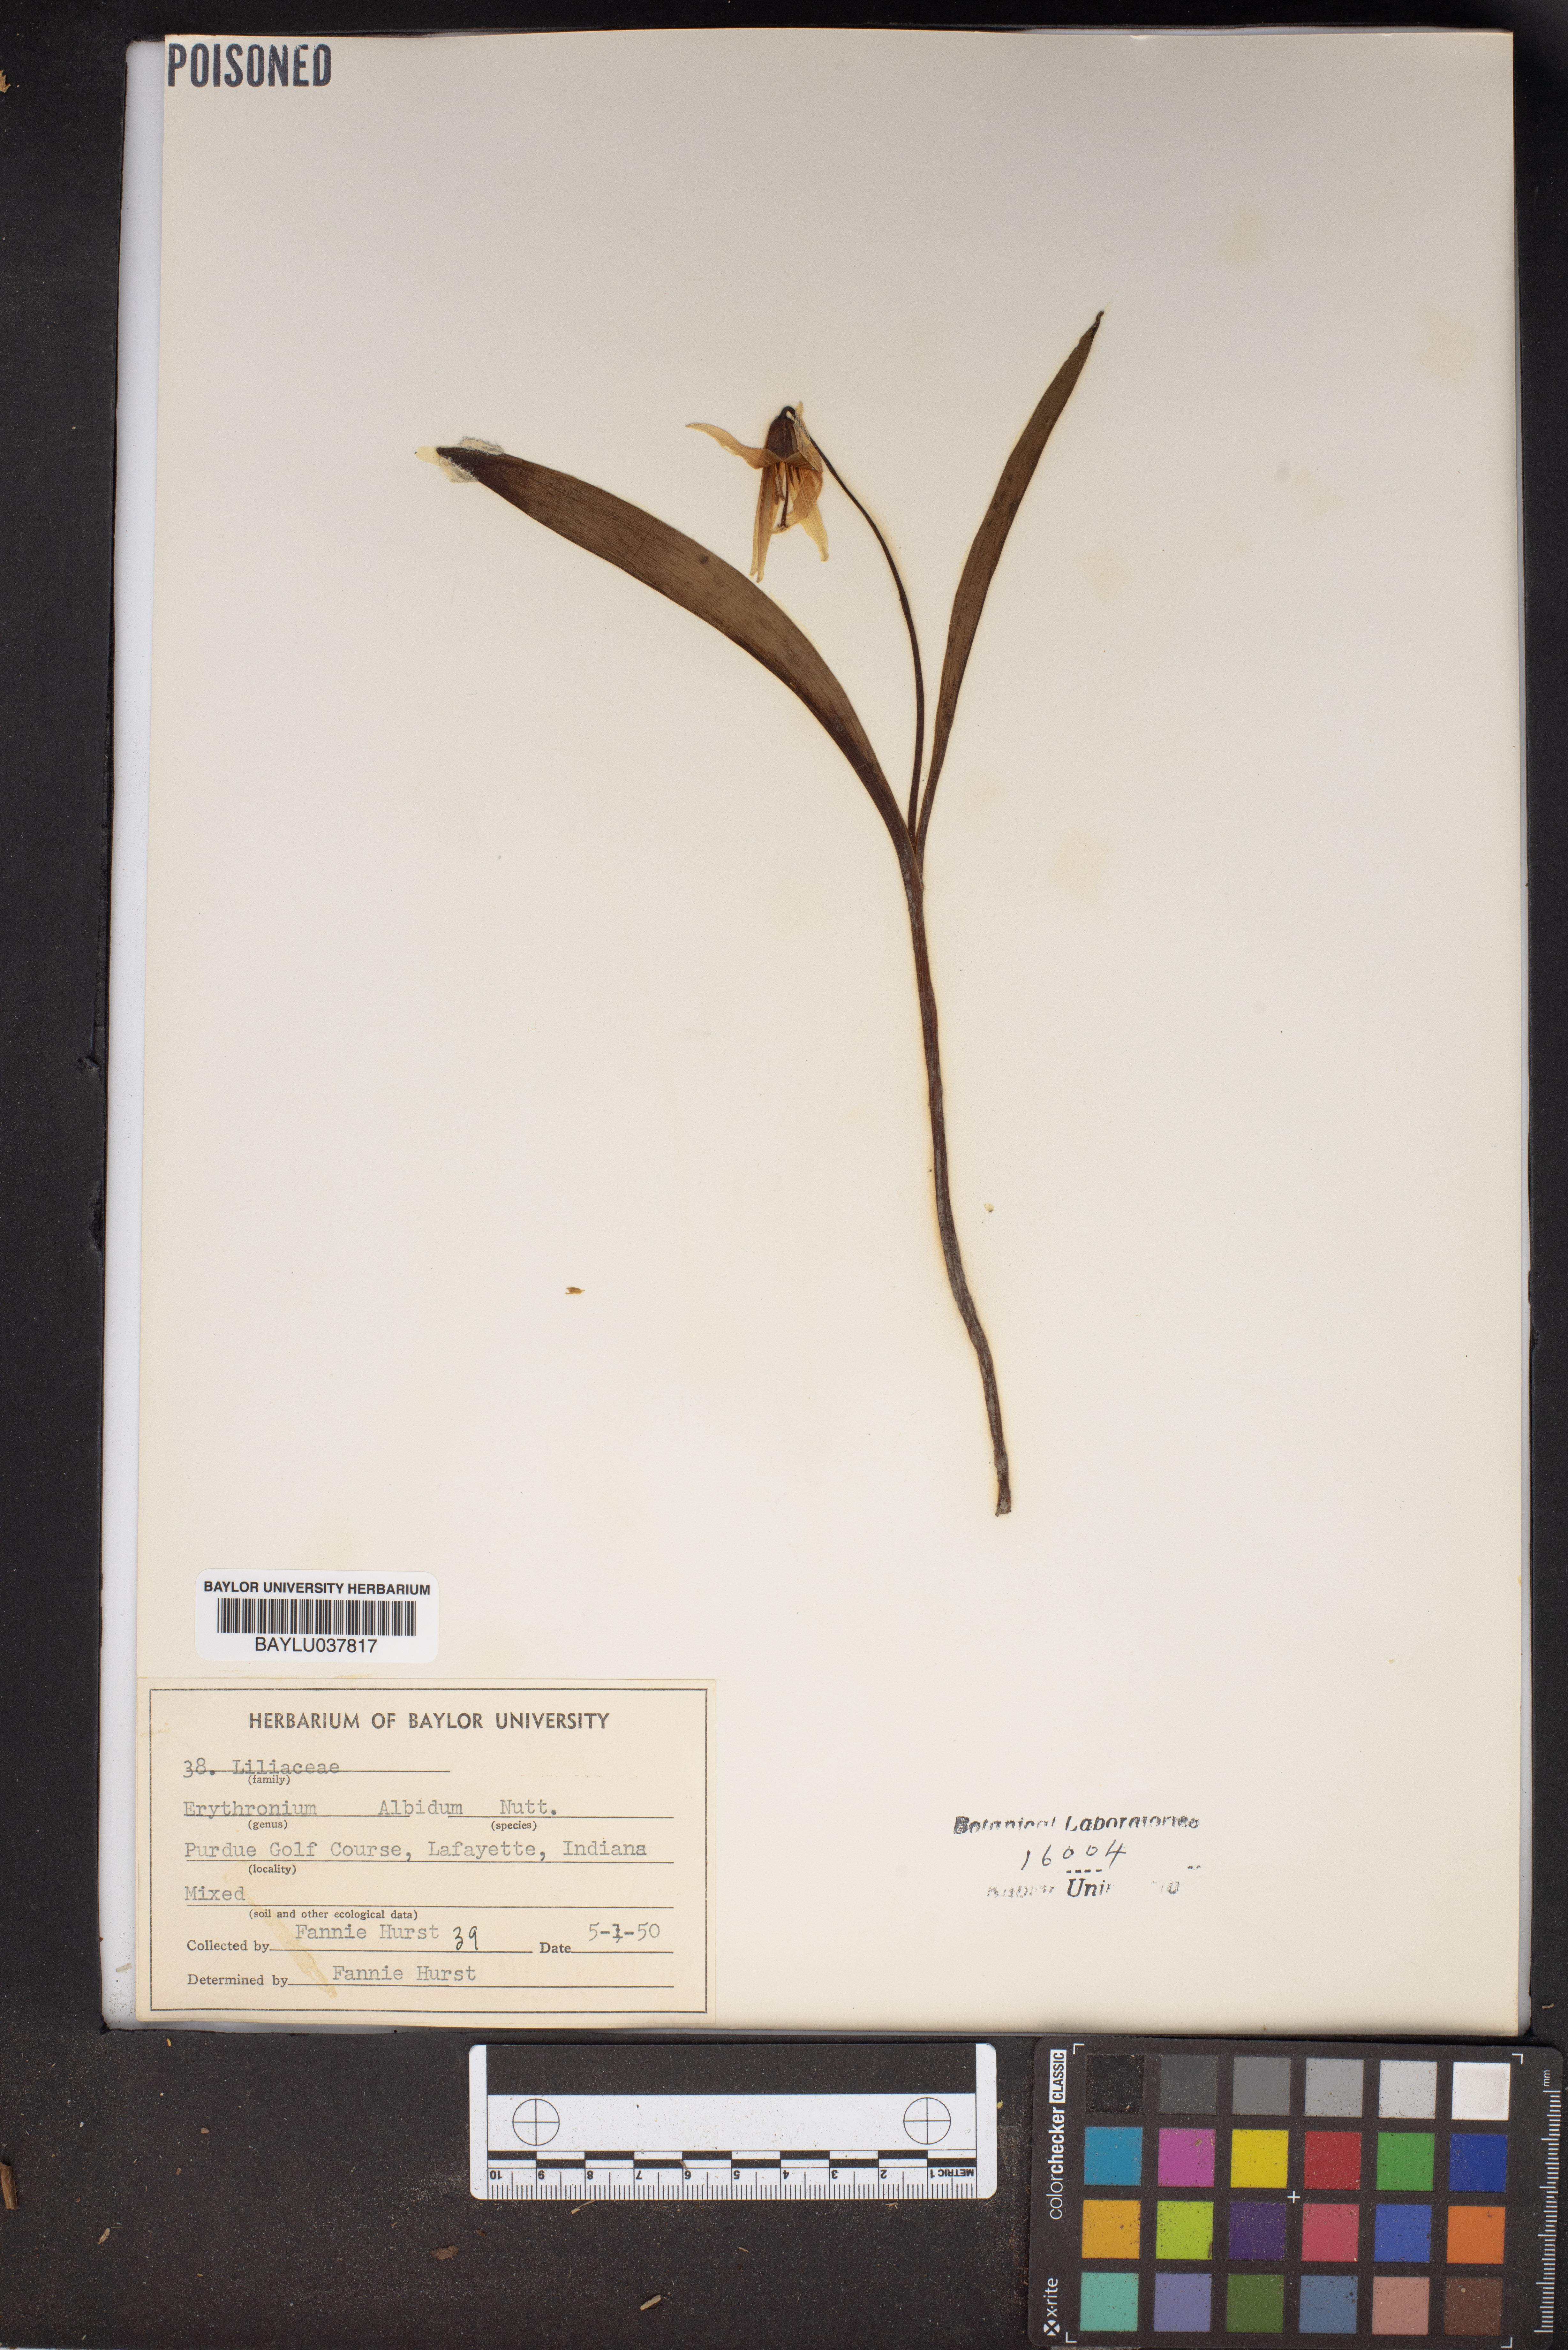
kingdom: Plantae
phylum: Tracheophyta
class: Liliopsida
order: Liliales
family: Liliaceae
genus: Erythronium
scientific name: Erythronium albidum
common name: White trout-lily
